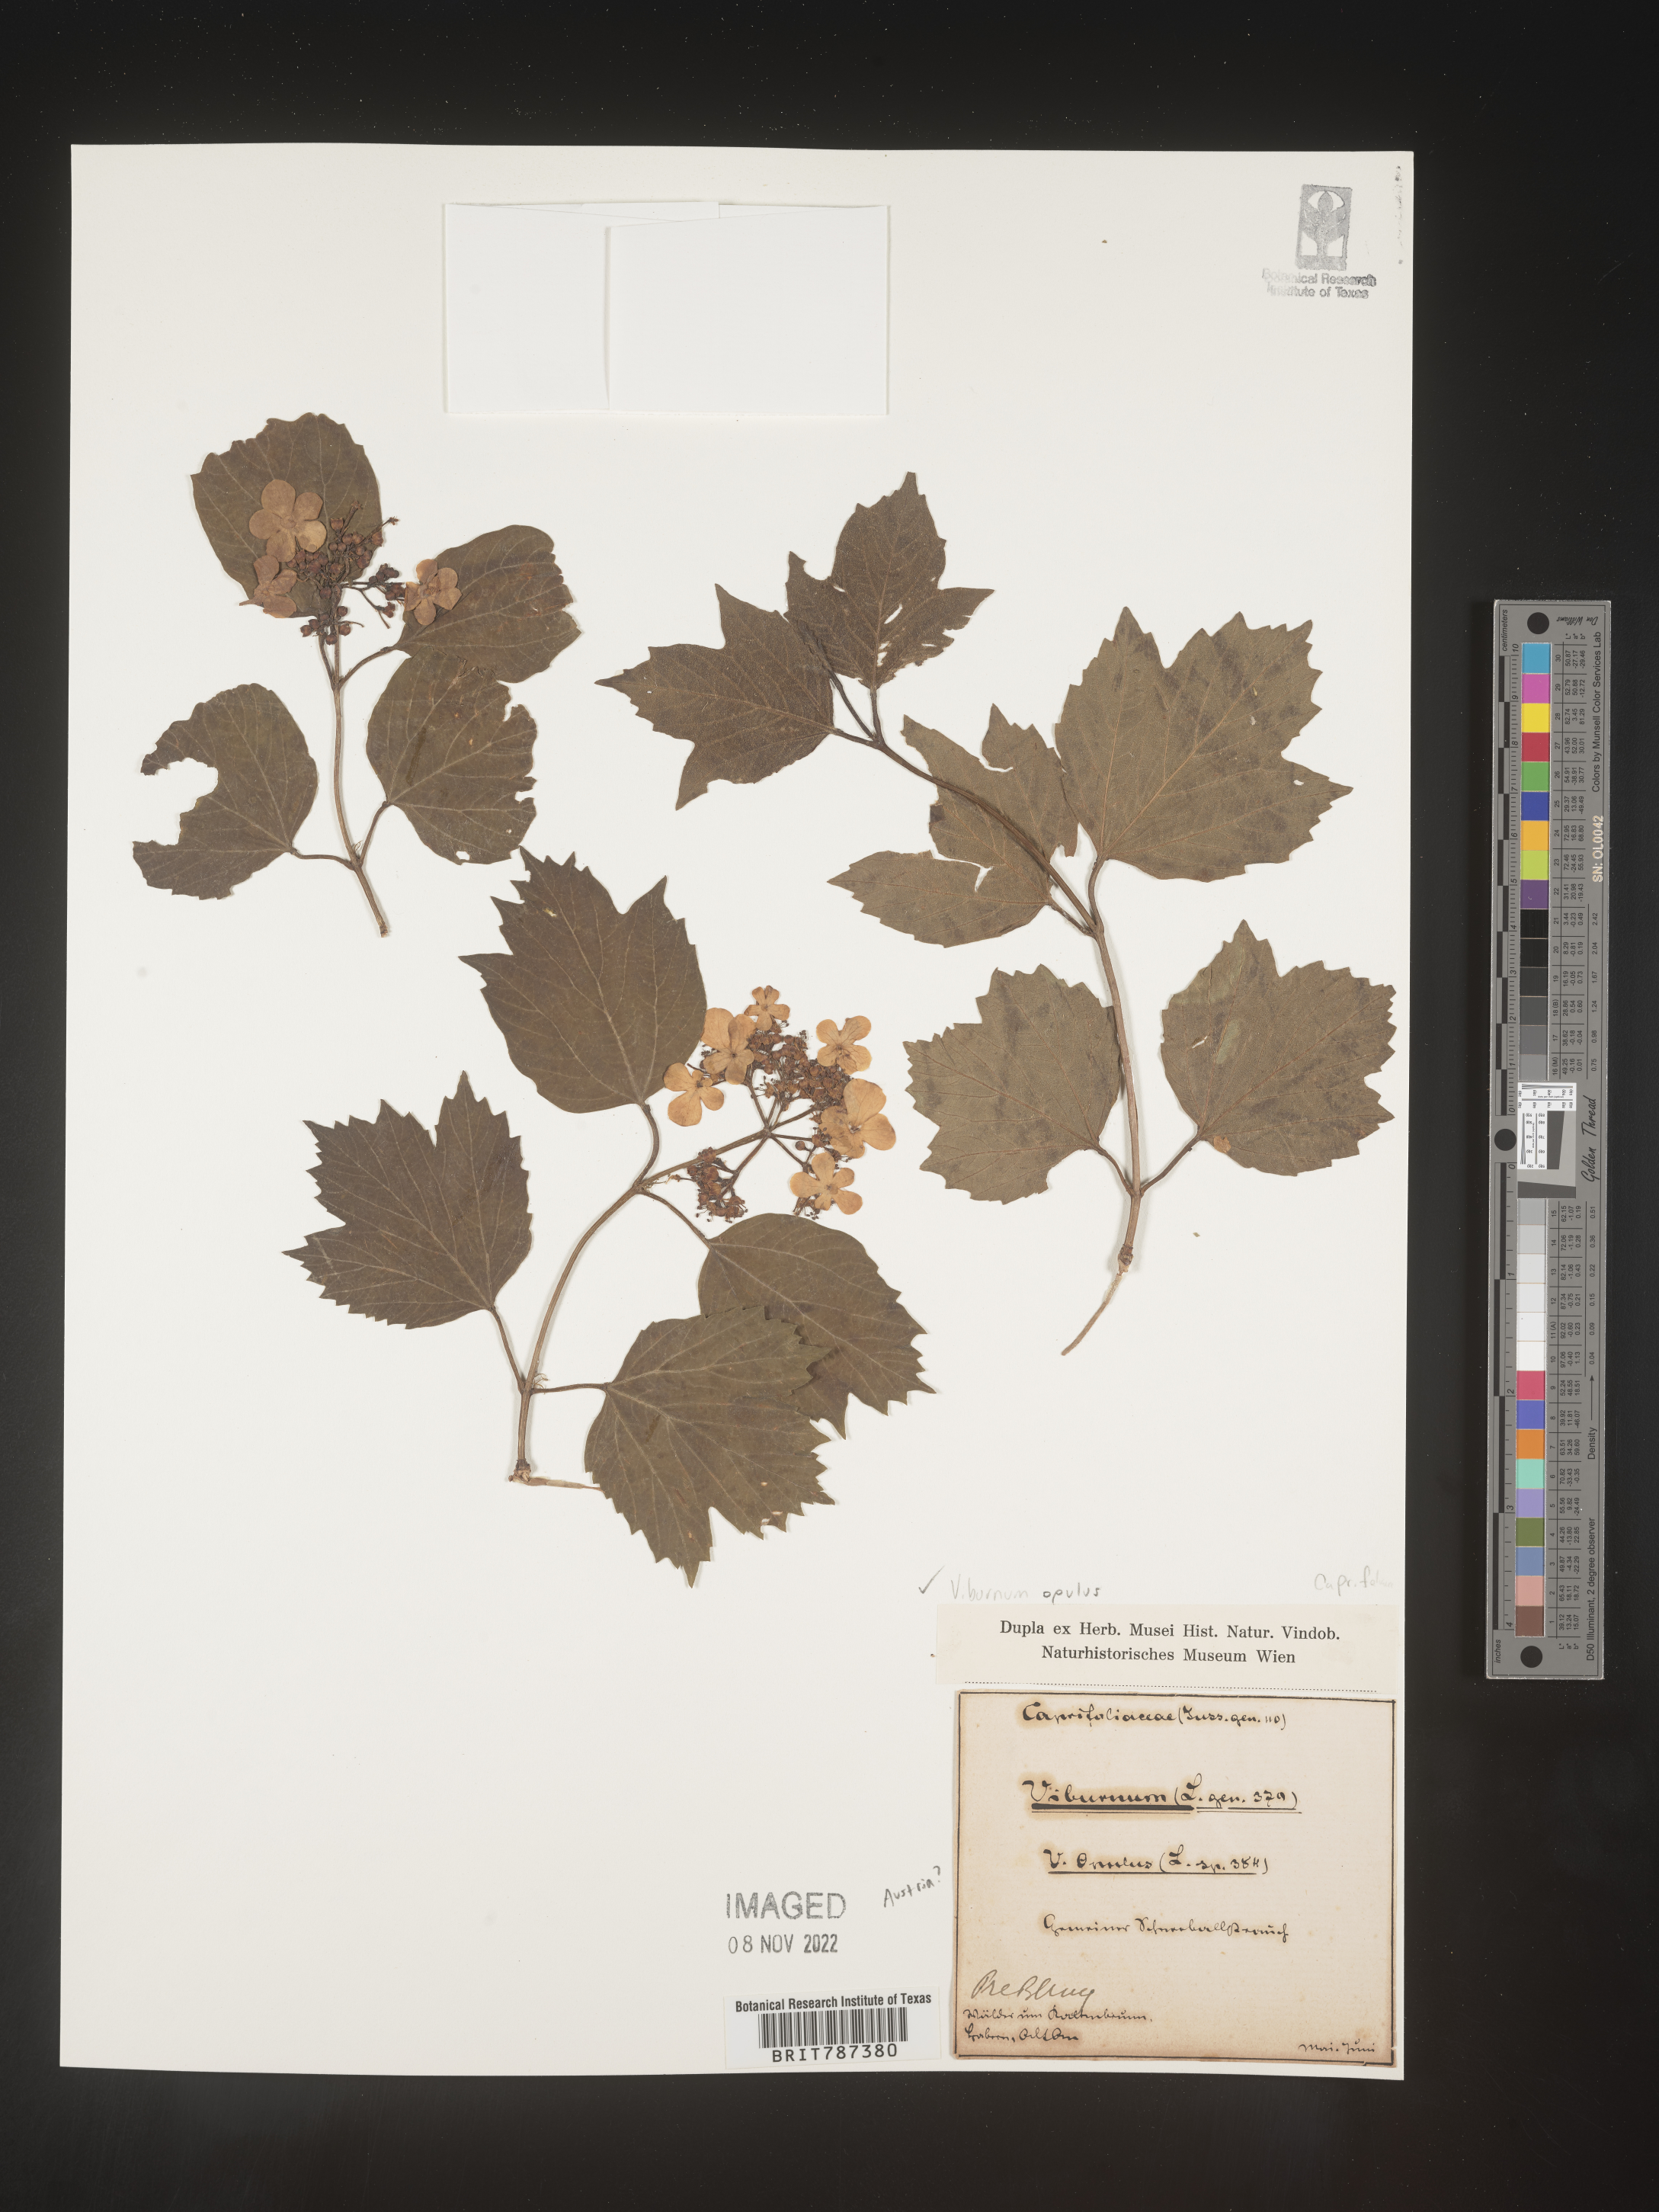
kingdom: Plantae
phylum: Tracheophyta
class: Magnoliopsida
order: Dipsacales
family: Viburnaceae
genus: Viburnum
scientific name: Viburnum opulus
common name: Guelder-rose
